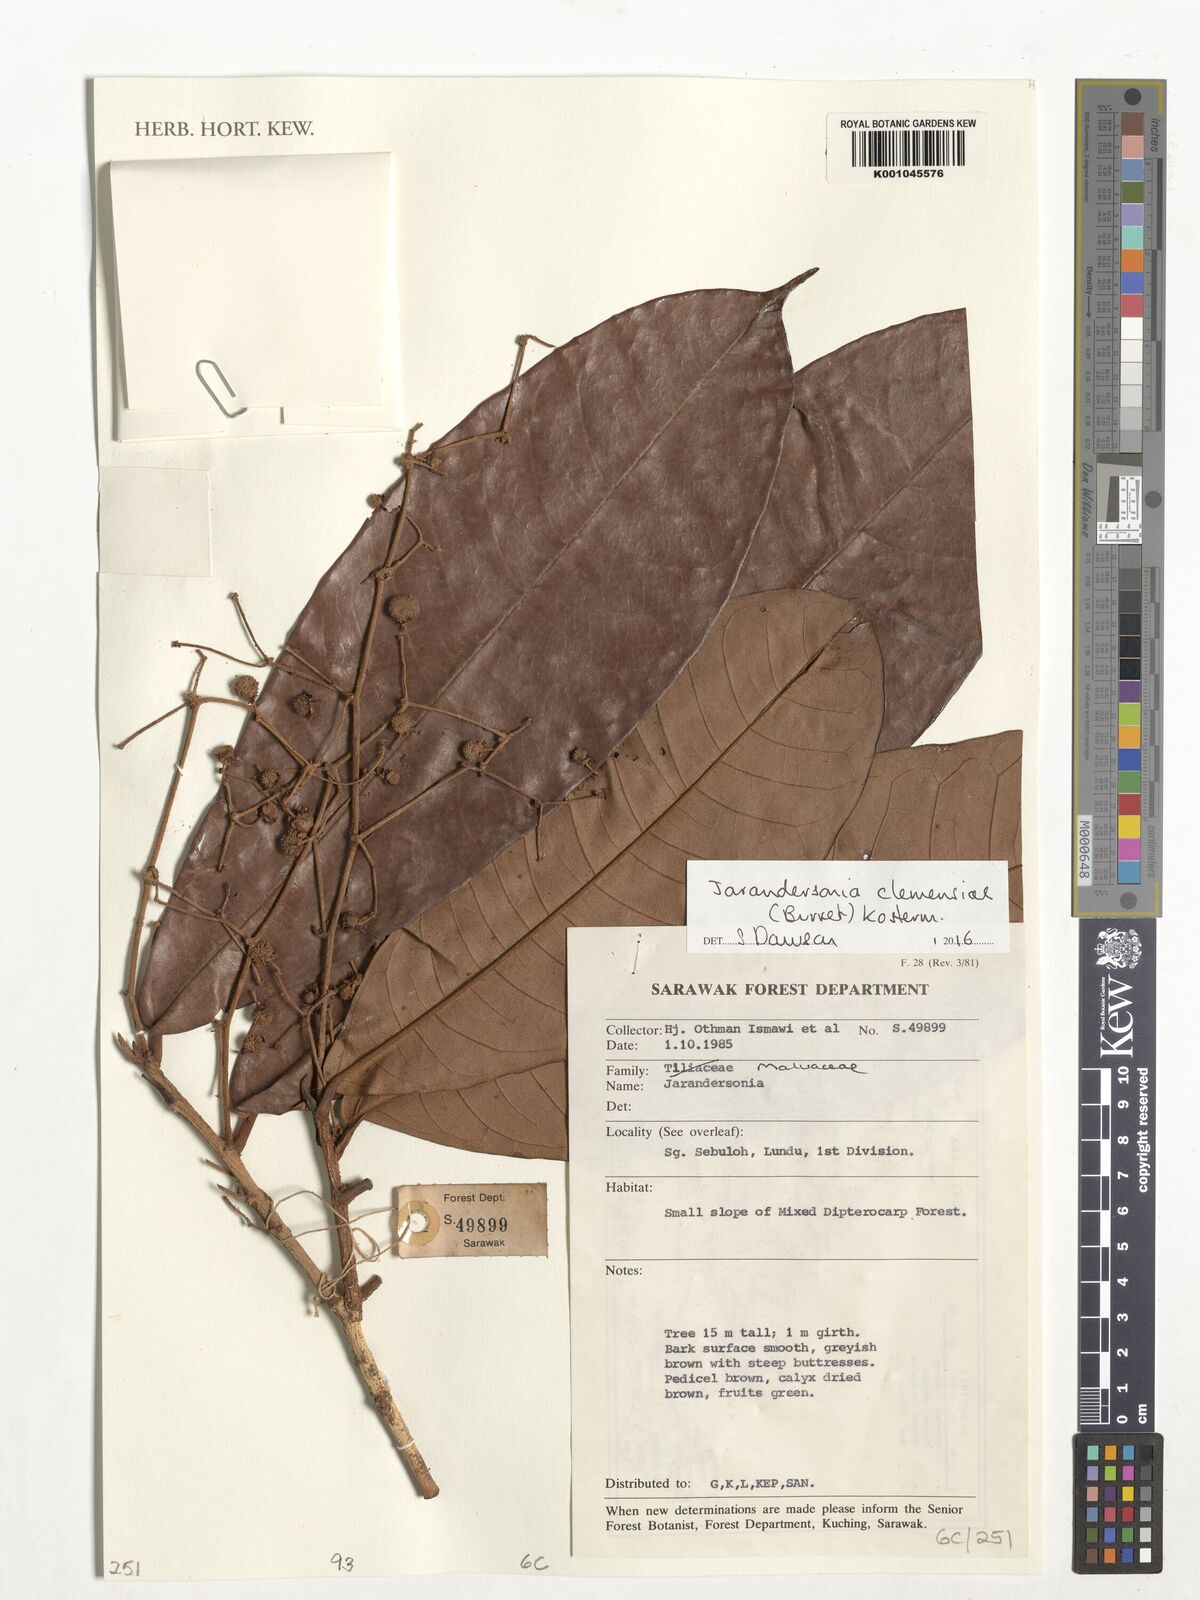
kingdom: Plantae
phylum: Tracheophyta
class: Magnoliopsida
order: Malvales
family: Malvaceae
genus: Jarandersonia
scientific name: Jarandersonia clemensiae
